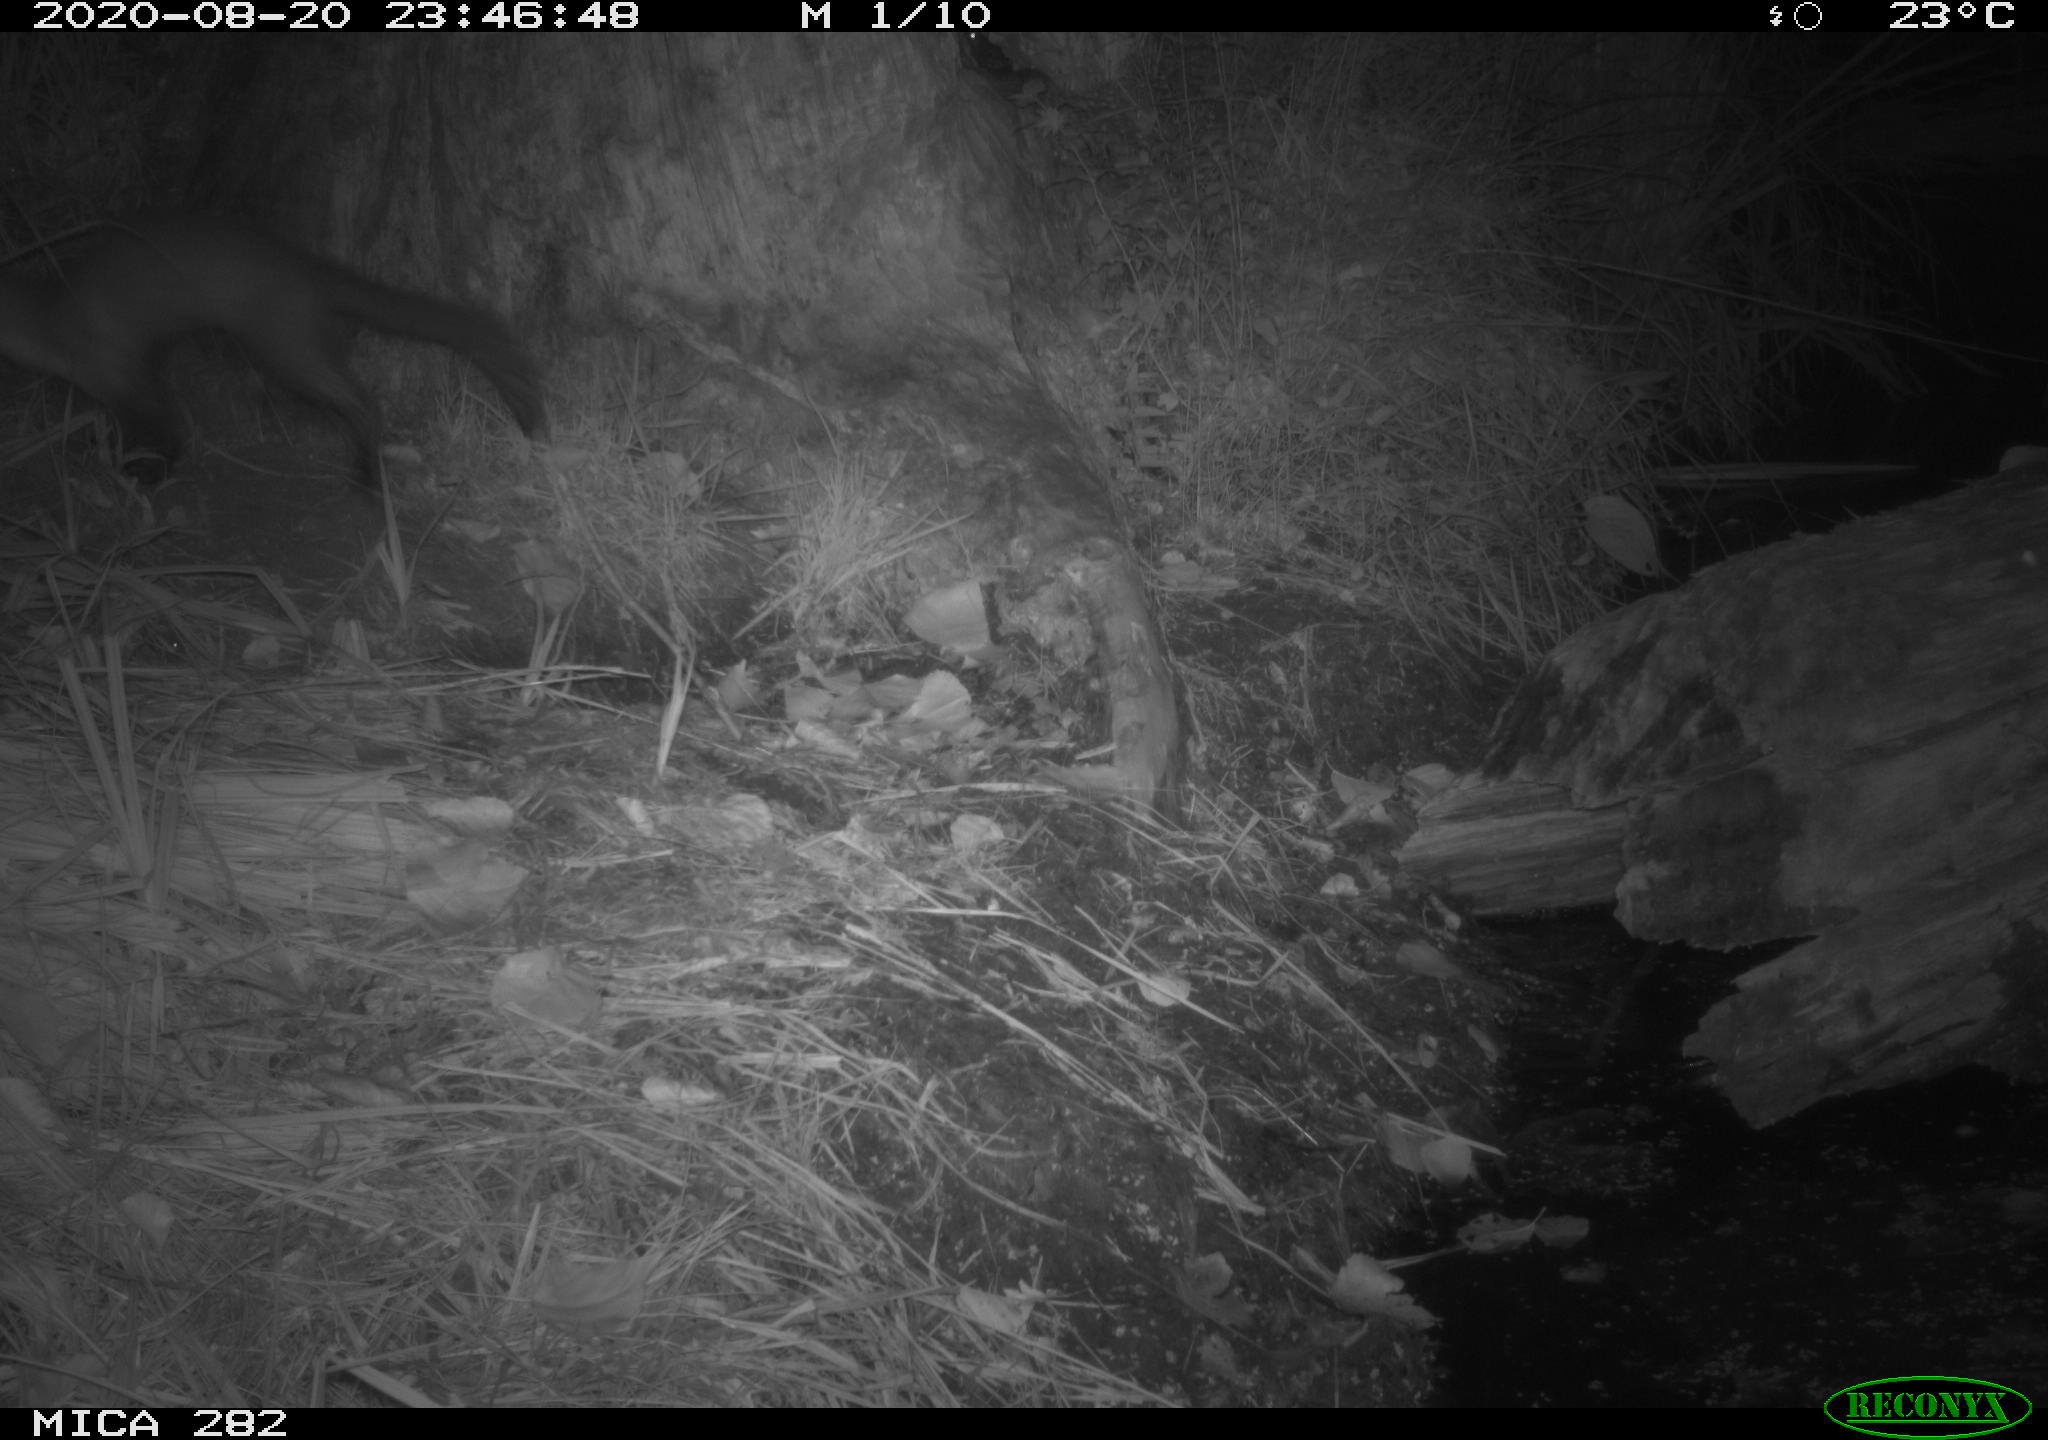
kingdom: Animalia
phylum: Chordata
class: Mammalia
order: Carnivora
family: Mustelidae
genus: Martes
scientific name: Martes foina
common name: Beech marten
